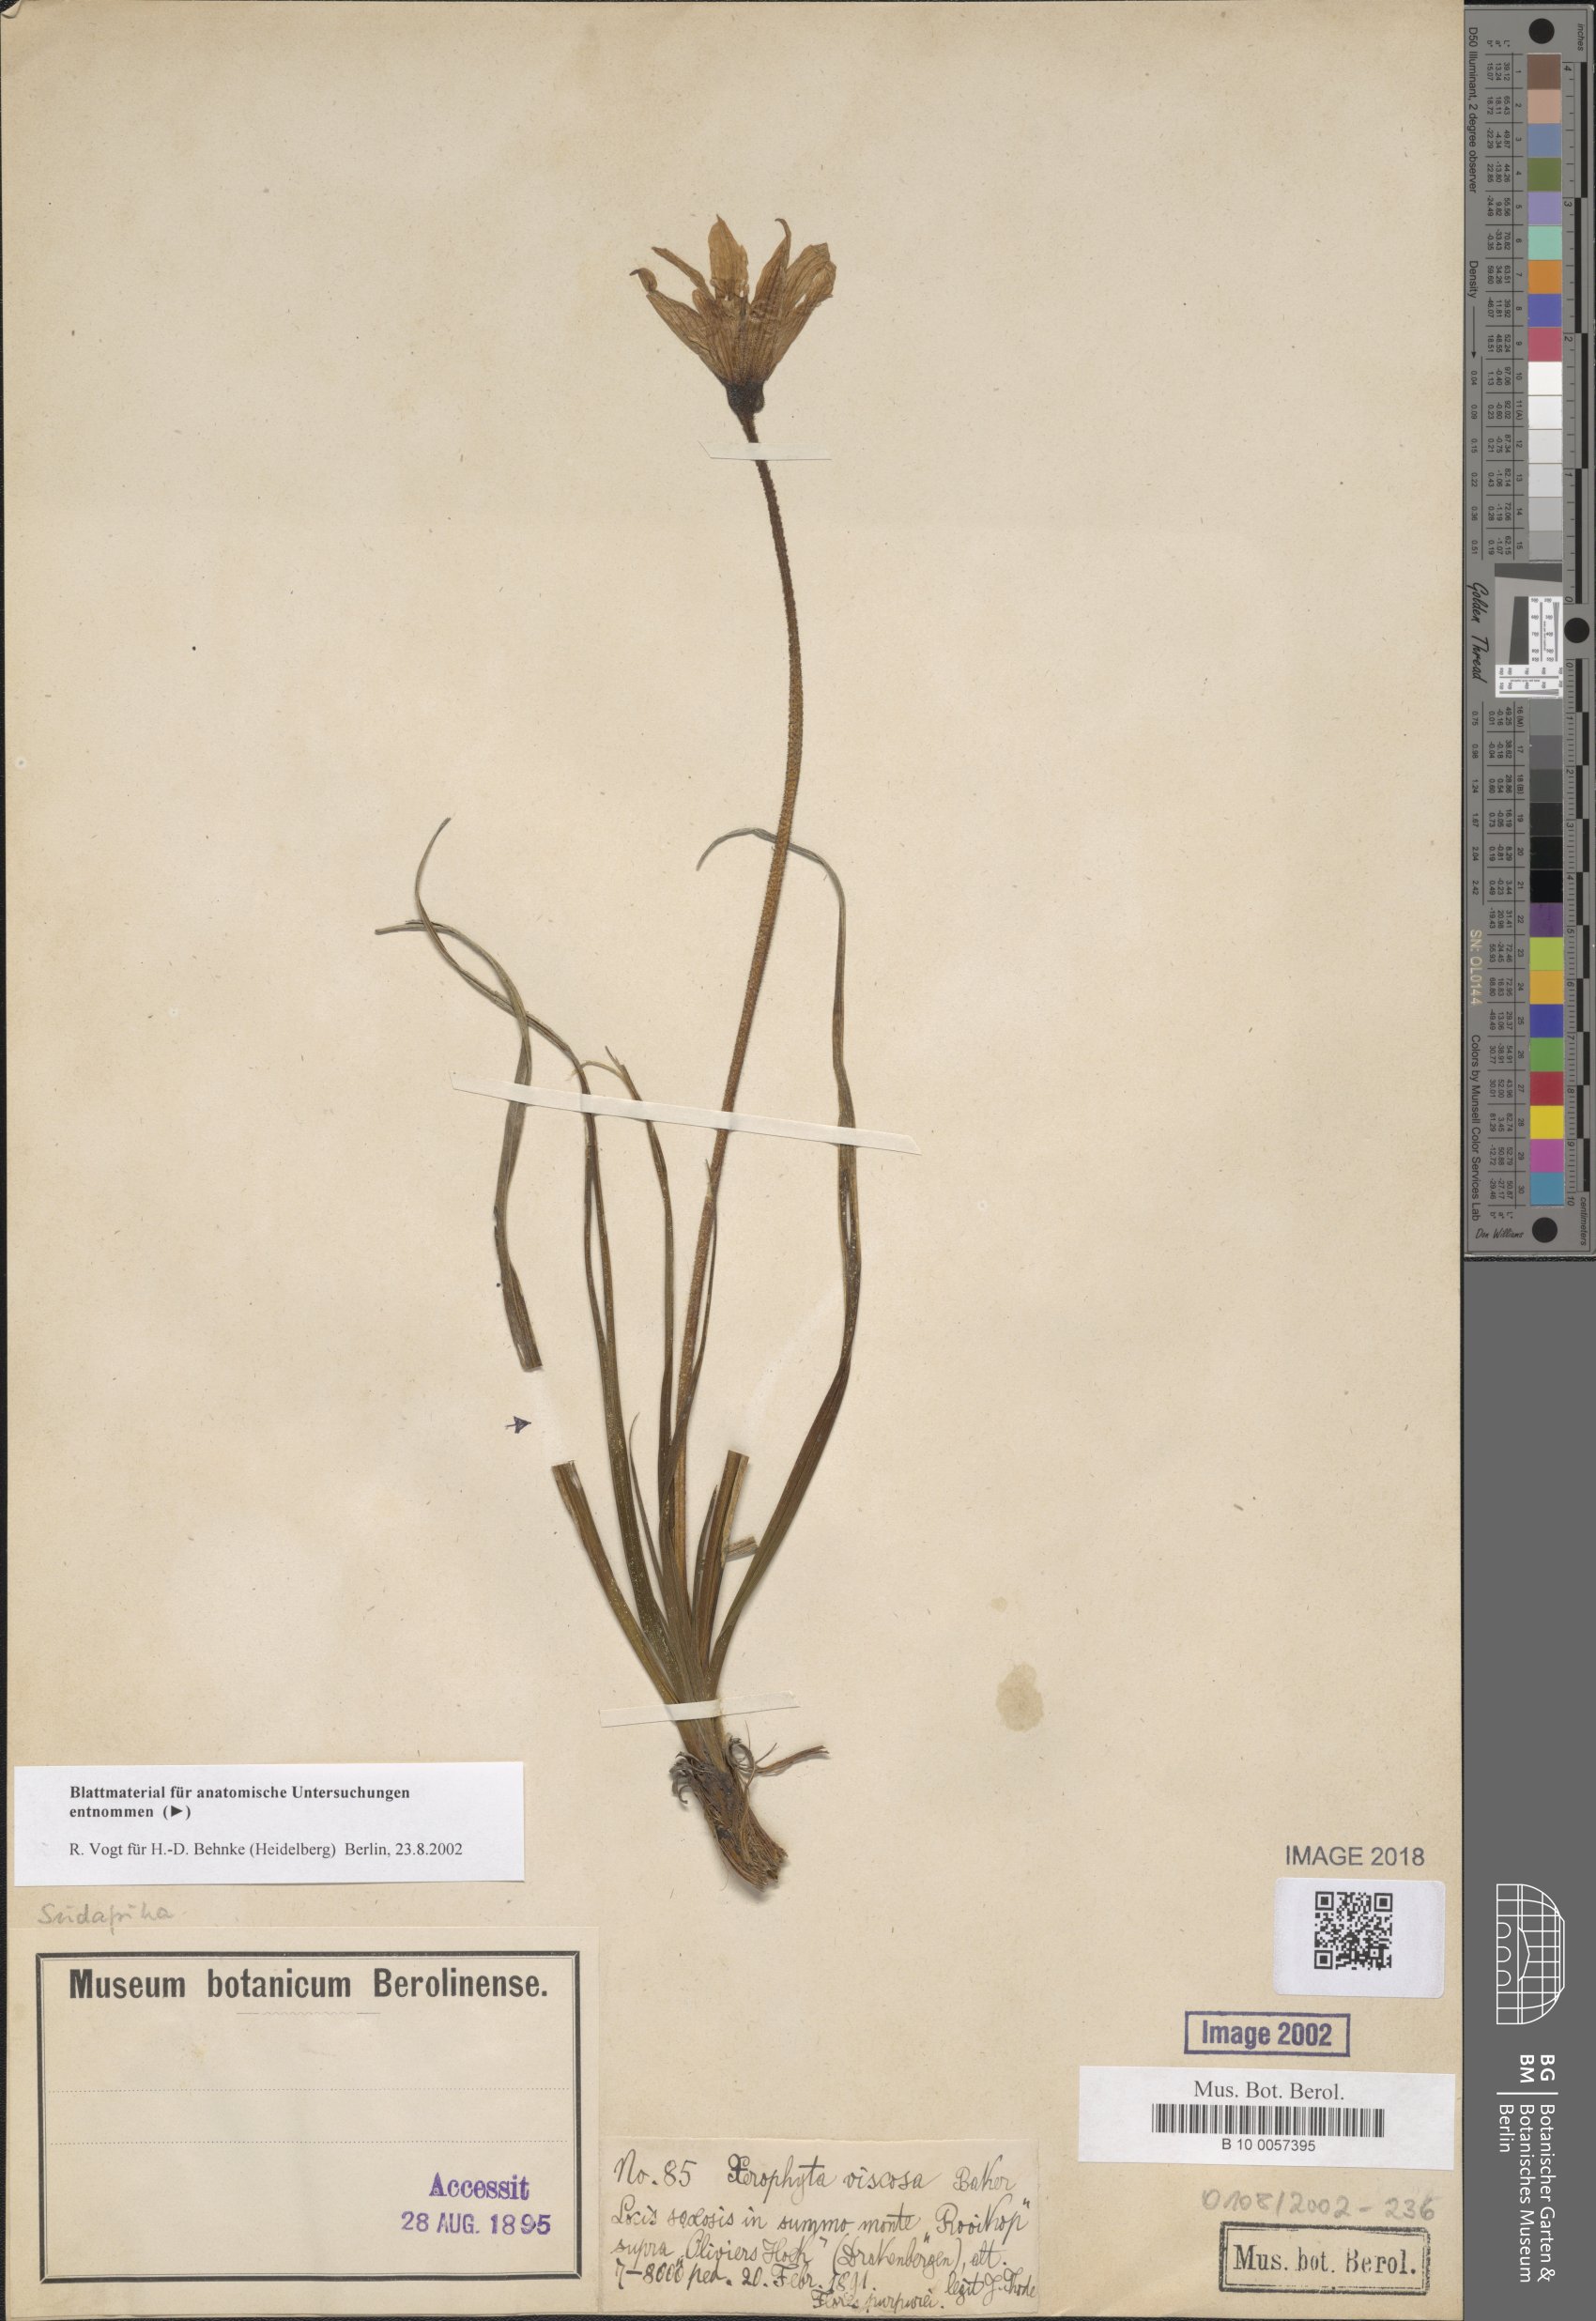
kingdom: Plantae
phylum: Tracheophyta
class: Liliopsida
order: Pandanales
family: Velloziaceae
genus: Xerophyta
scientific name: Xerophyta viscosa
